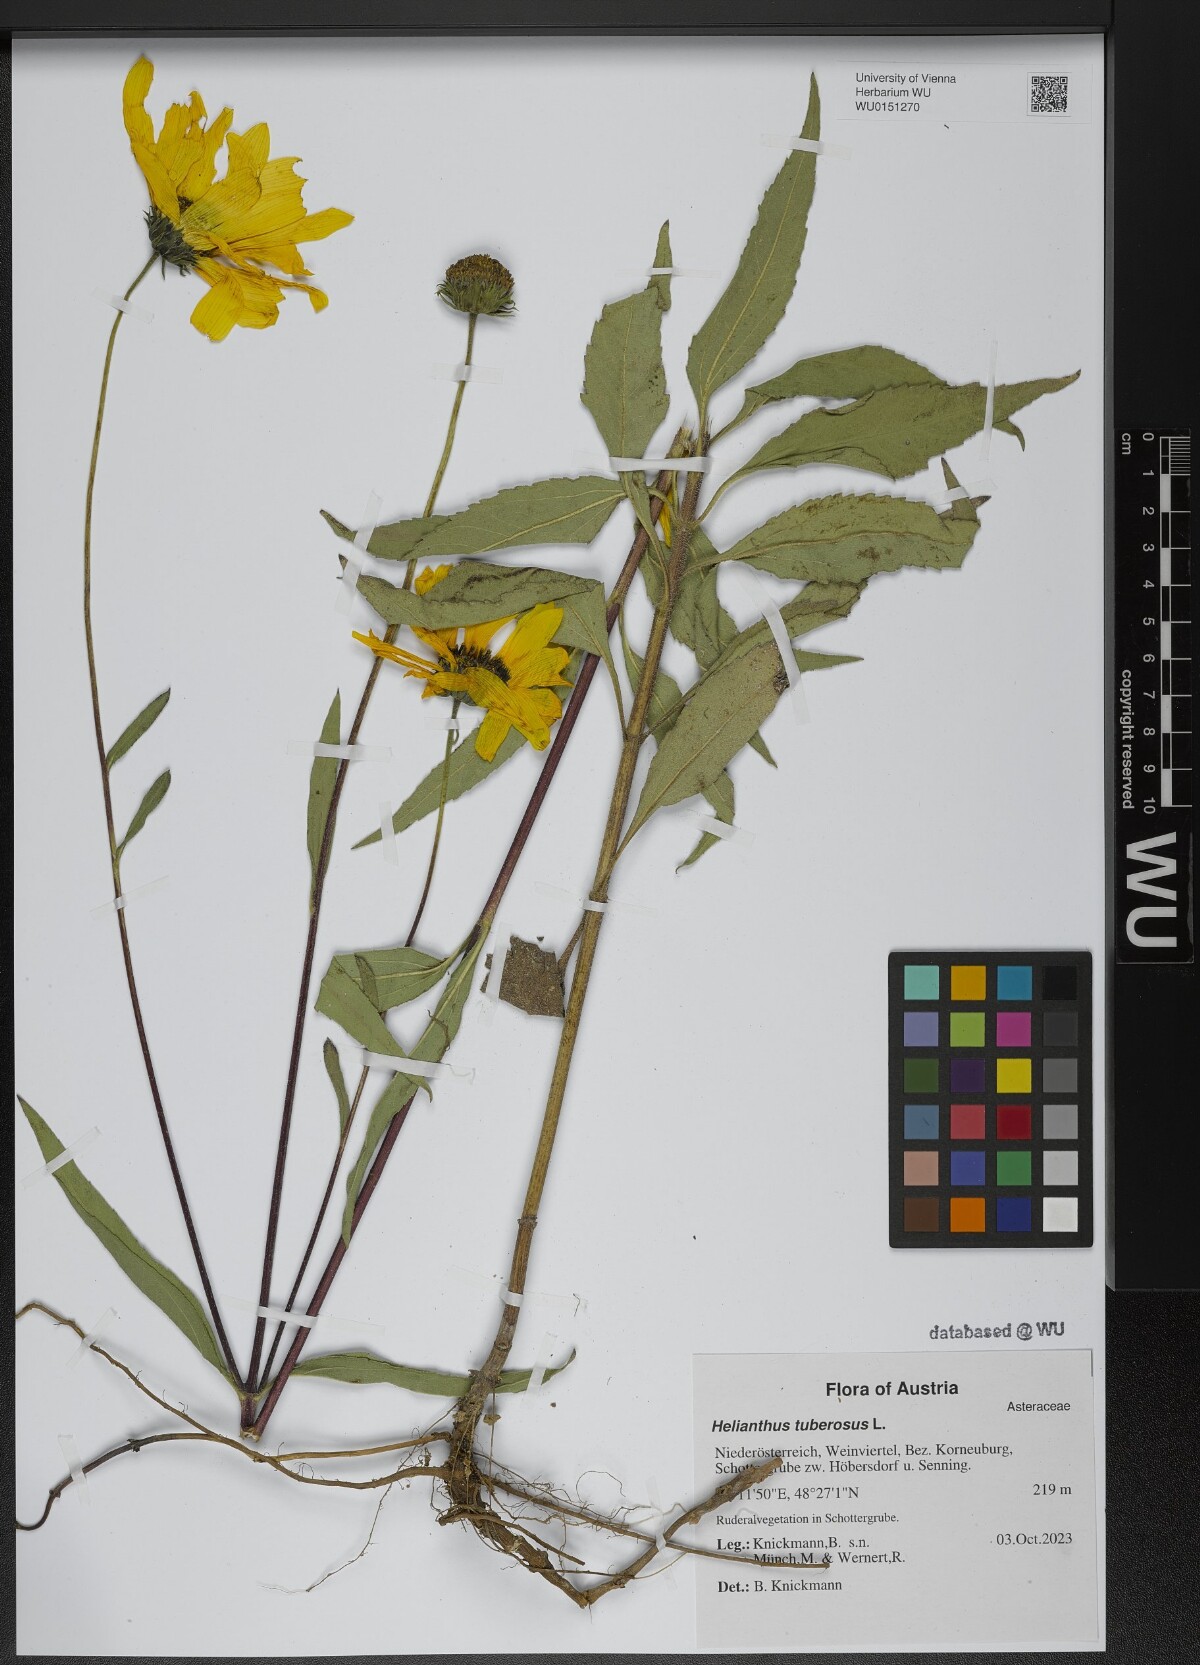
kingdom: Plantae
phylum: Tracheophyta
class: Magnoliopsida
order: Asterales
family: Asteraceae
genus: Helianthus
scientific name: Helianthus tuberosus
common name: Jerusalem artichoke
